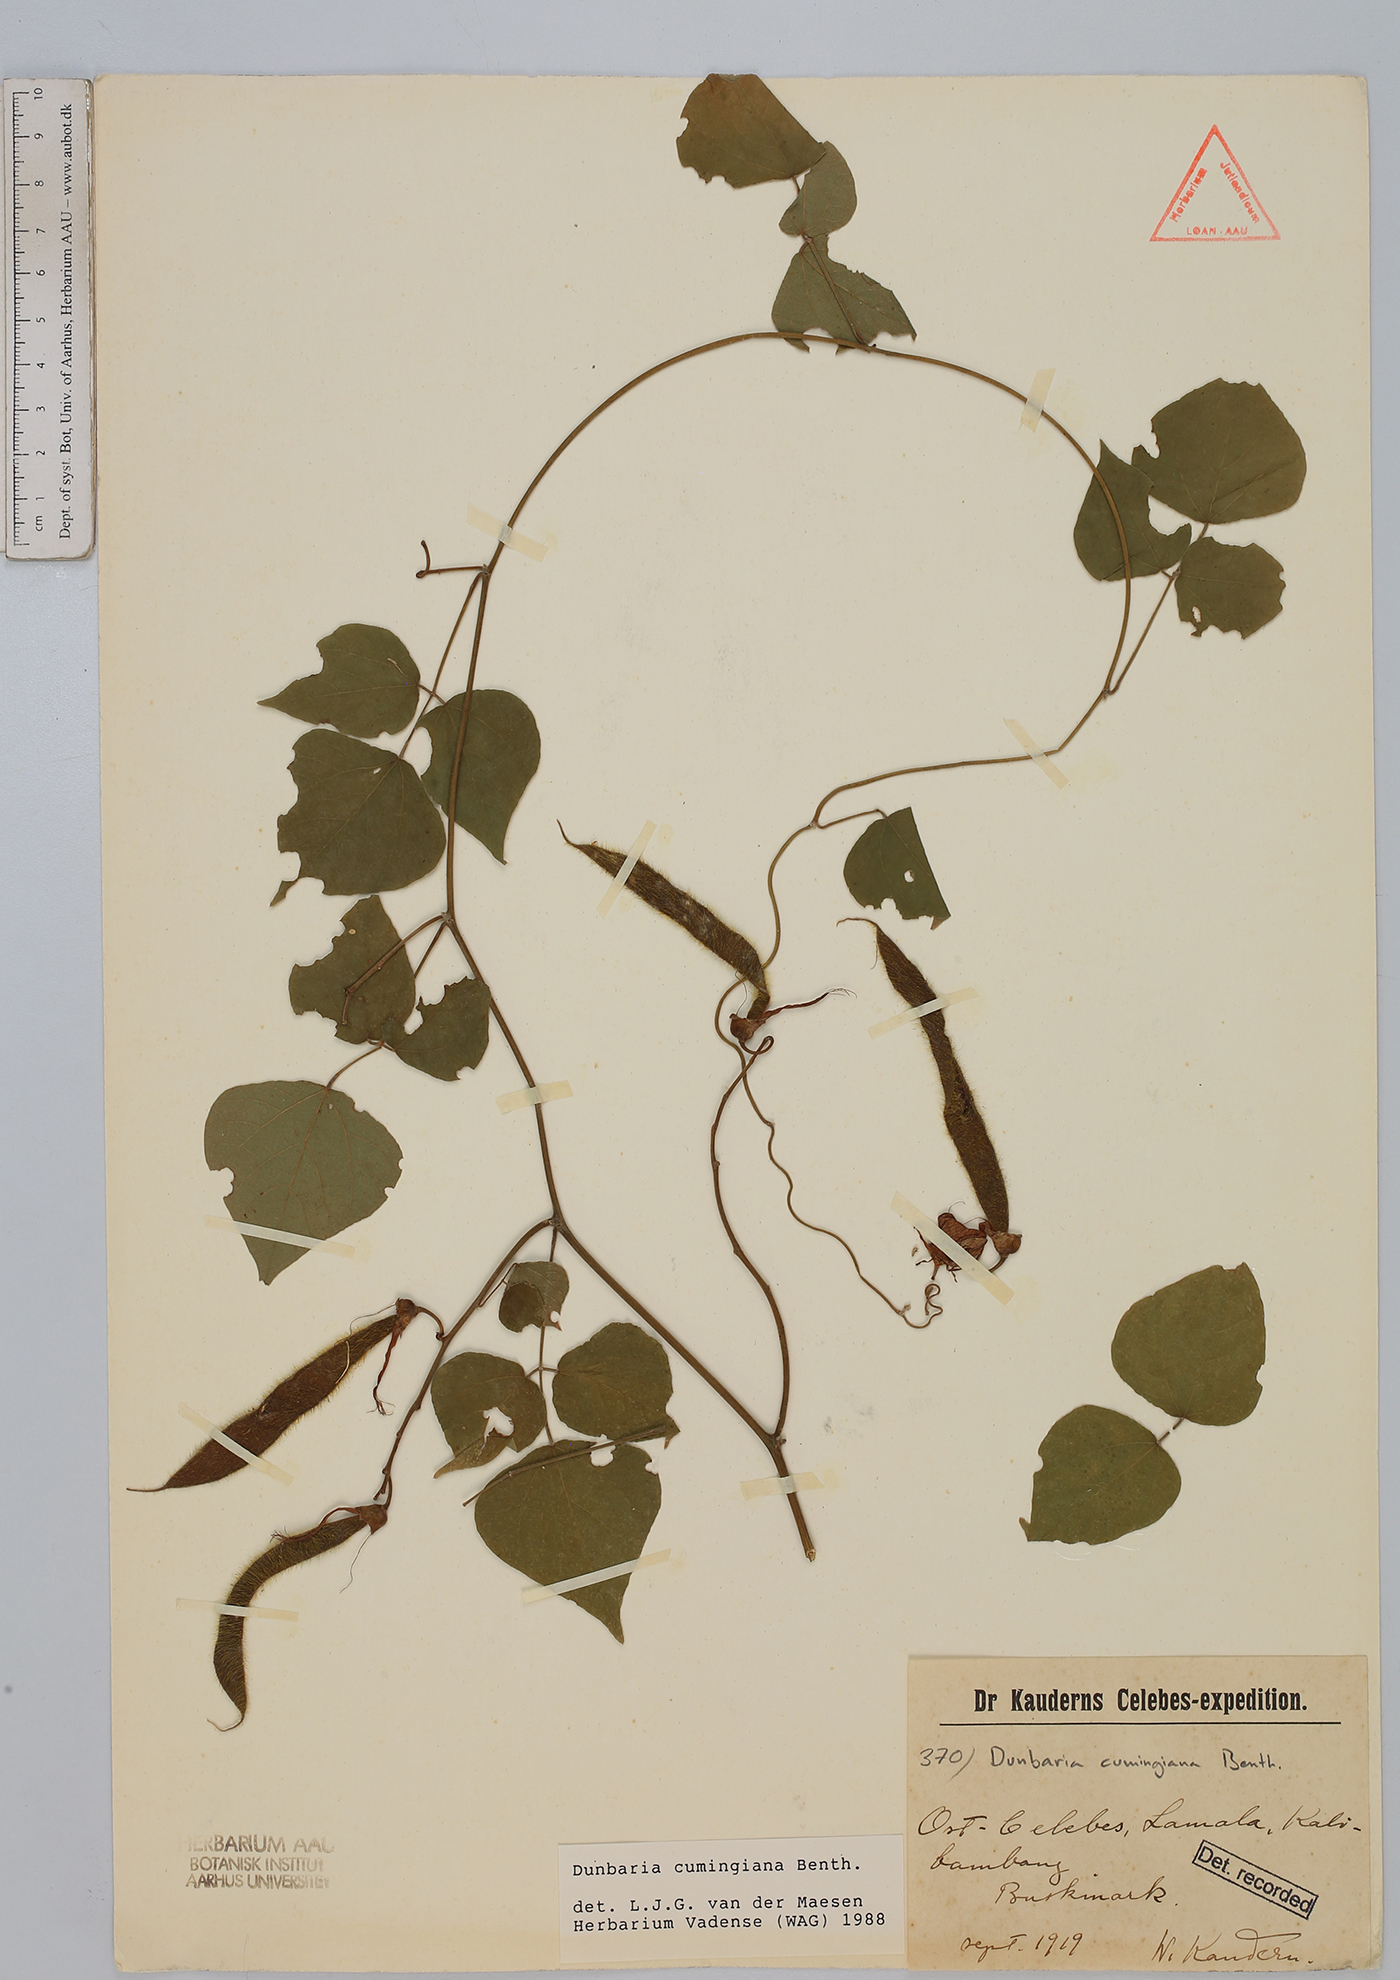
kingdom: Plantae
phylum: Tracheophyta
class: Magnoliopsida
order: Fabales
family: Fabaceae
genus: Dunbaria
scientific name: Dunbaria cumingiana
